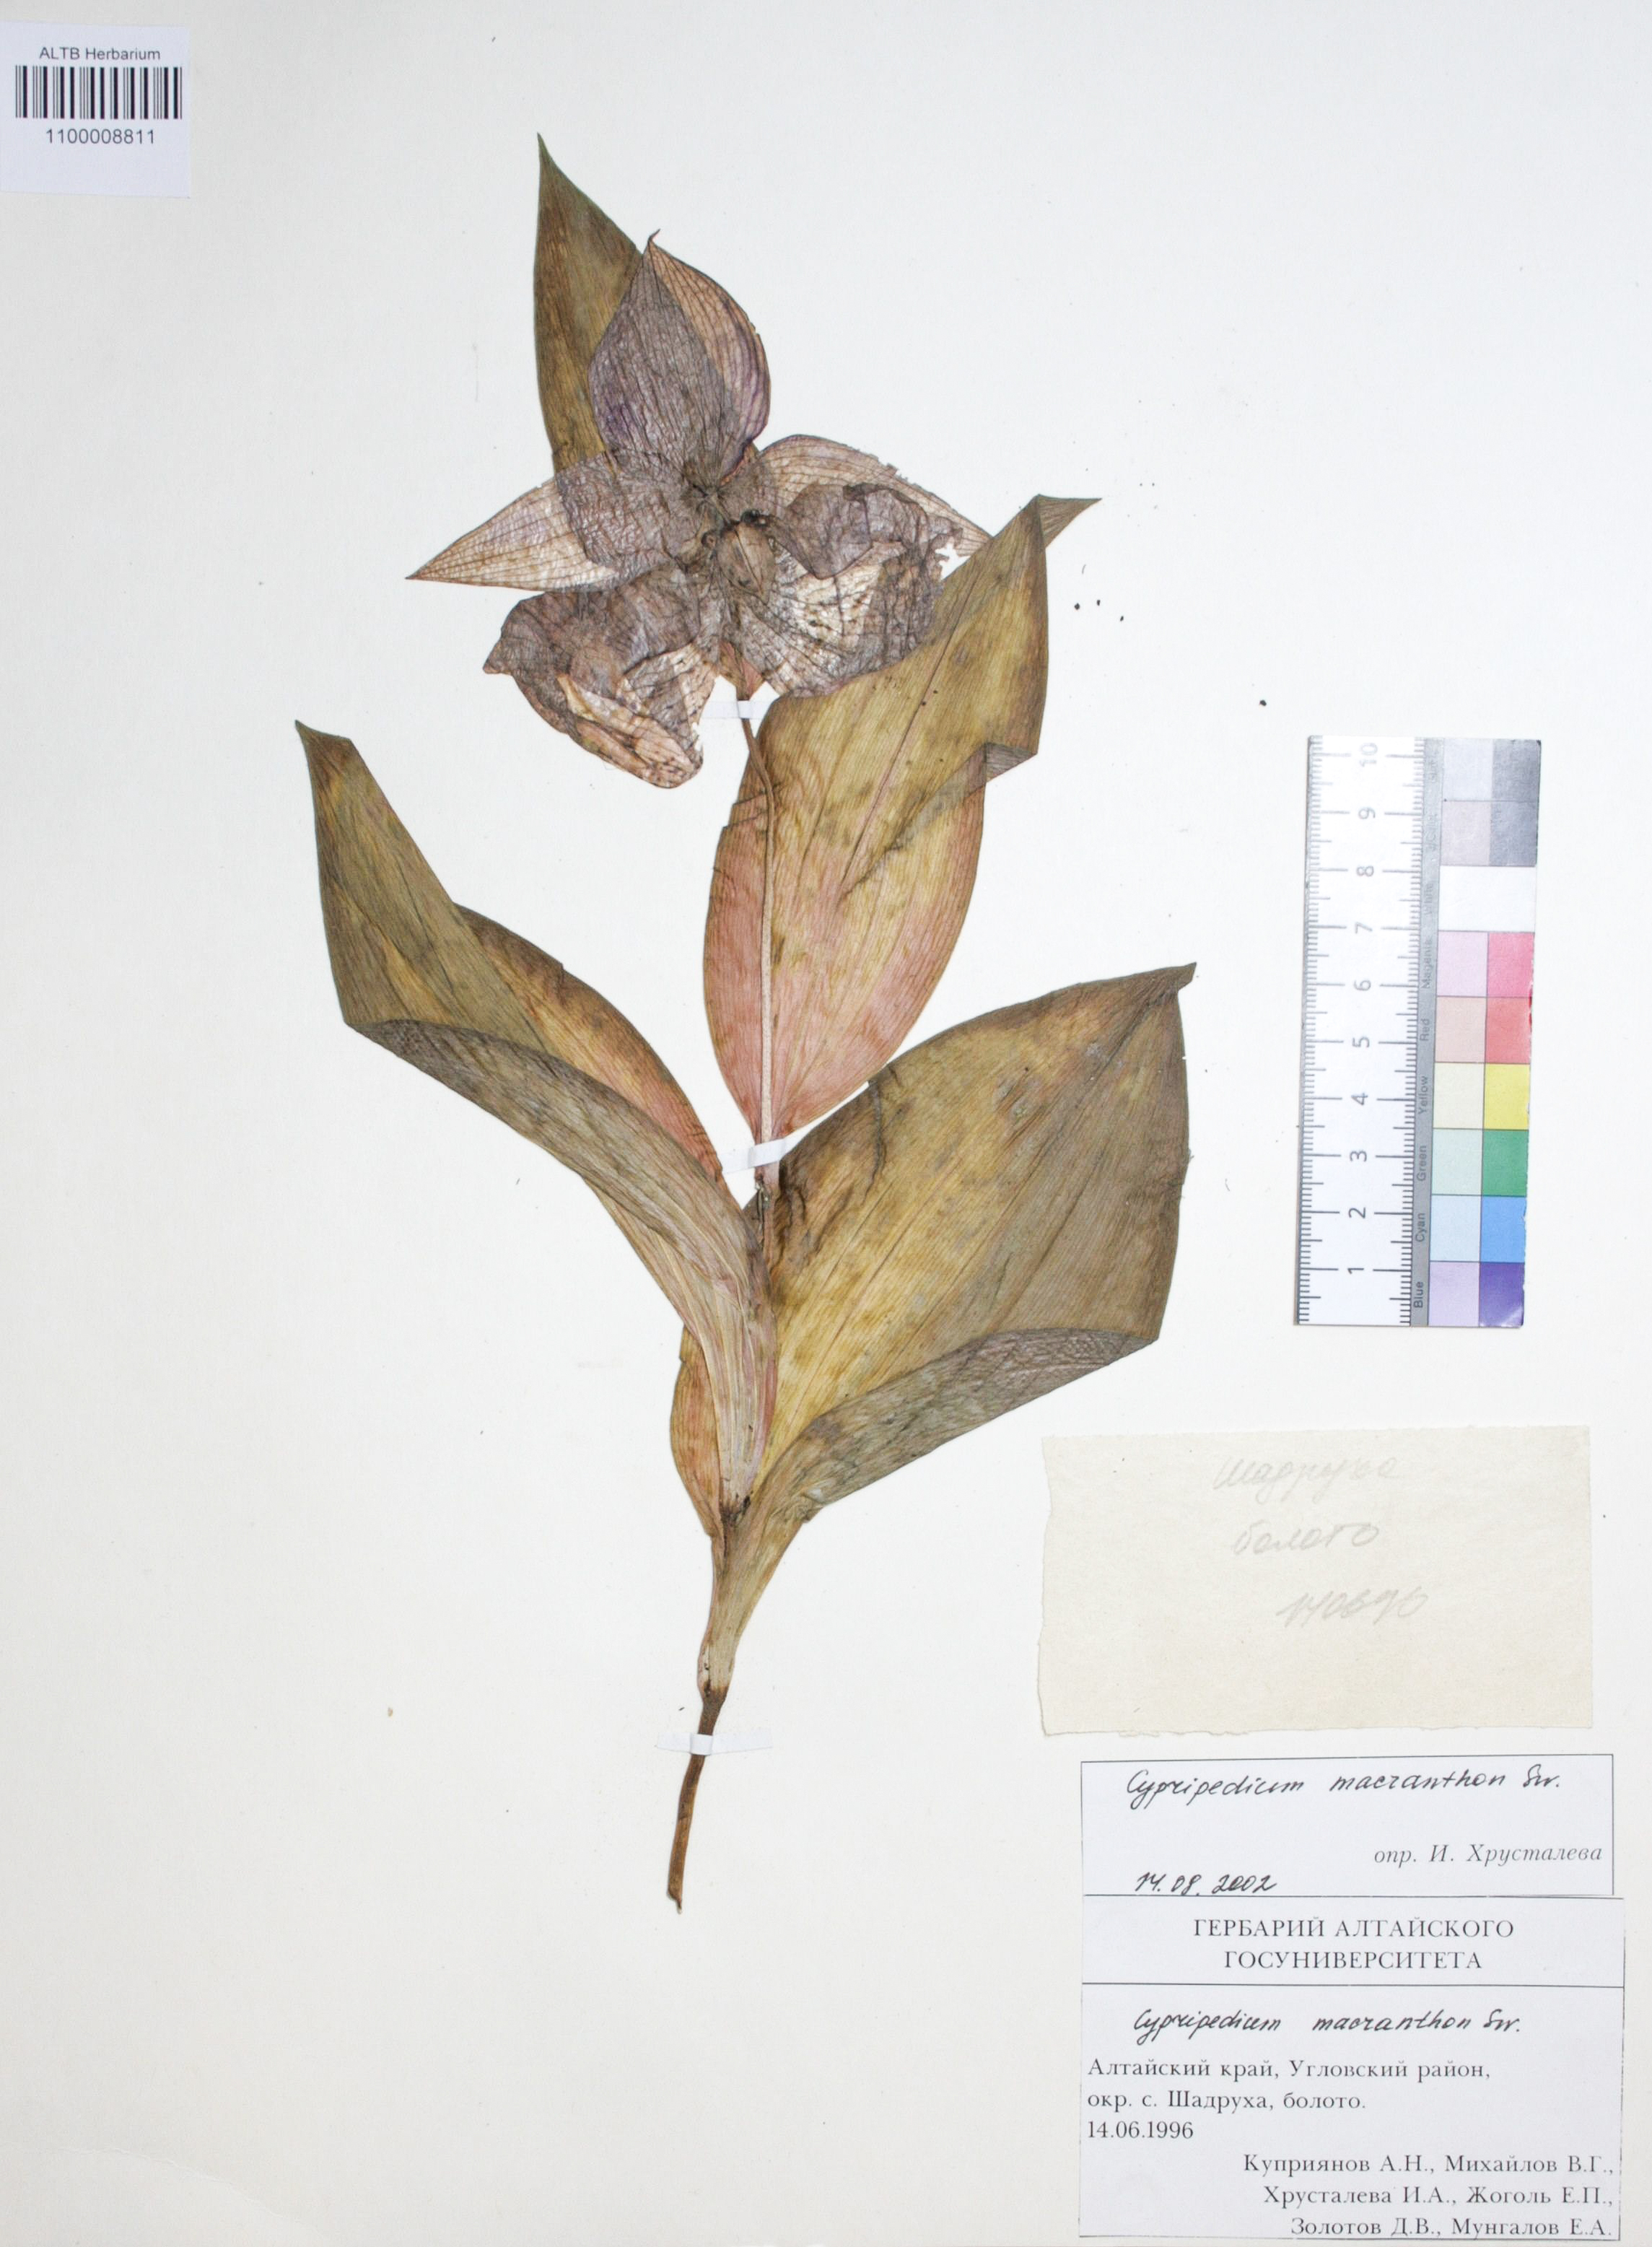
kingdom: Plantae
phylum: Tracheophyta
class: Liliopsida
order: Asparagales
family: Orchidaceae
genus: Cypripedium
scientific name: Cypripedium macranthon
